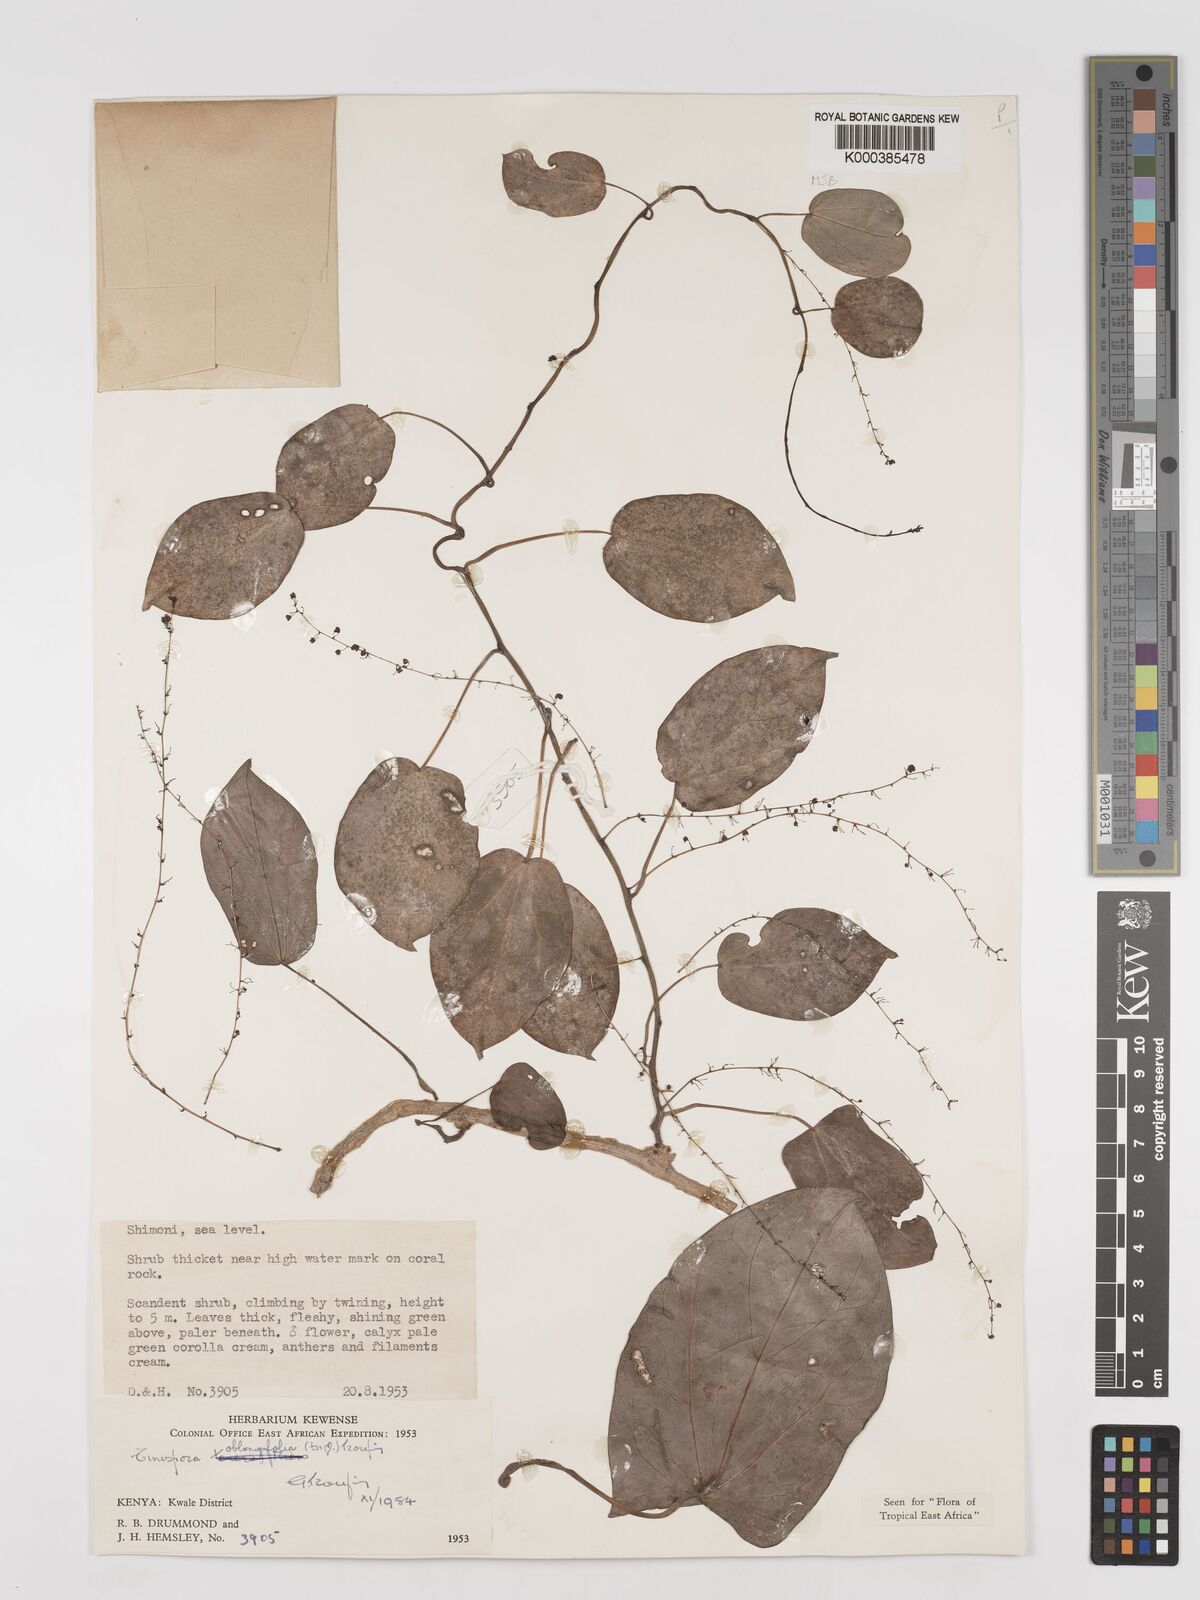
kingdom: Plantae
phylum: Tracheophyta
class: Magnoliopsida
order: Ranunculales
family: Menispermaceae
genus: Tinospora
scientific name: Tinospora oblongifolia
